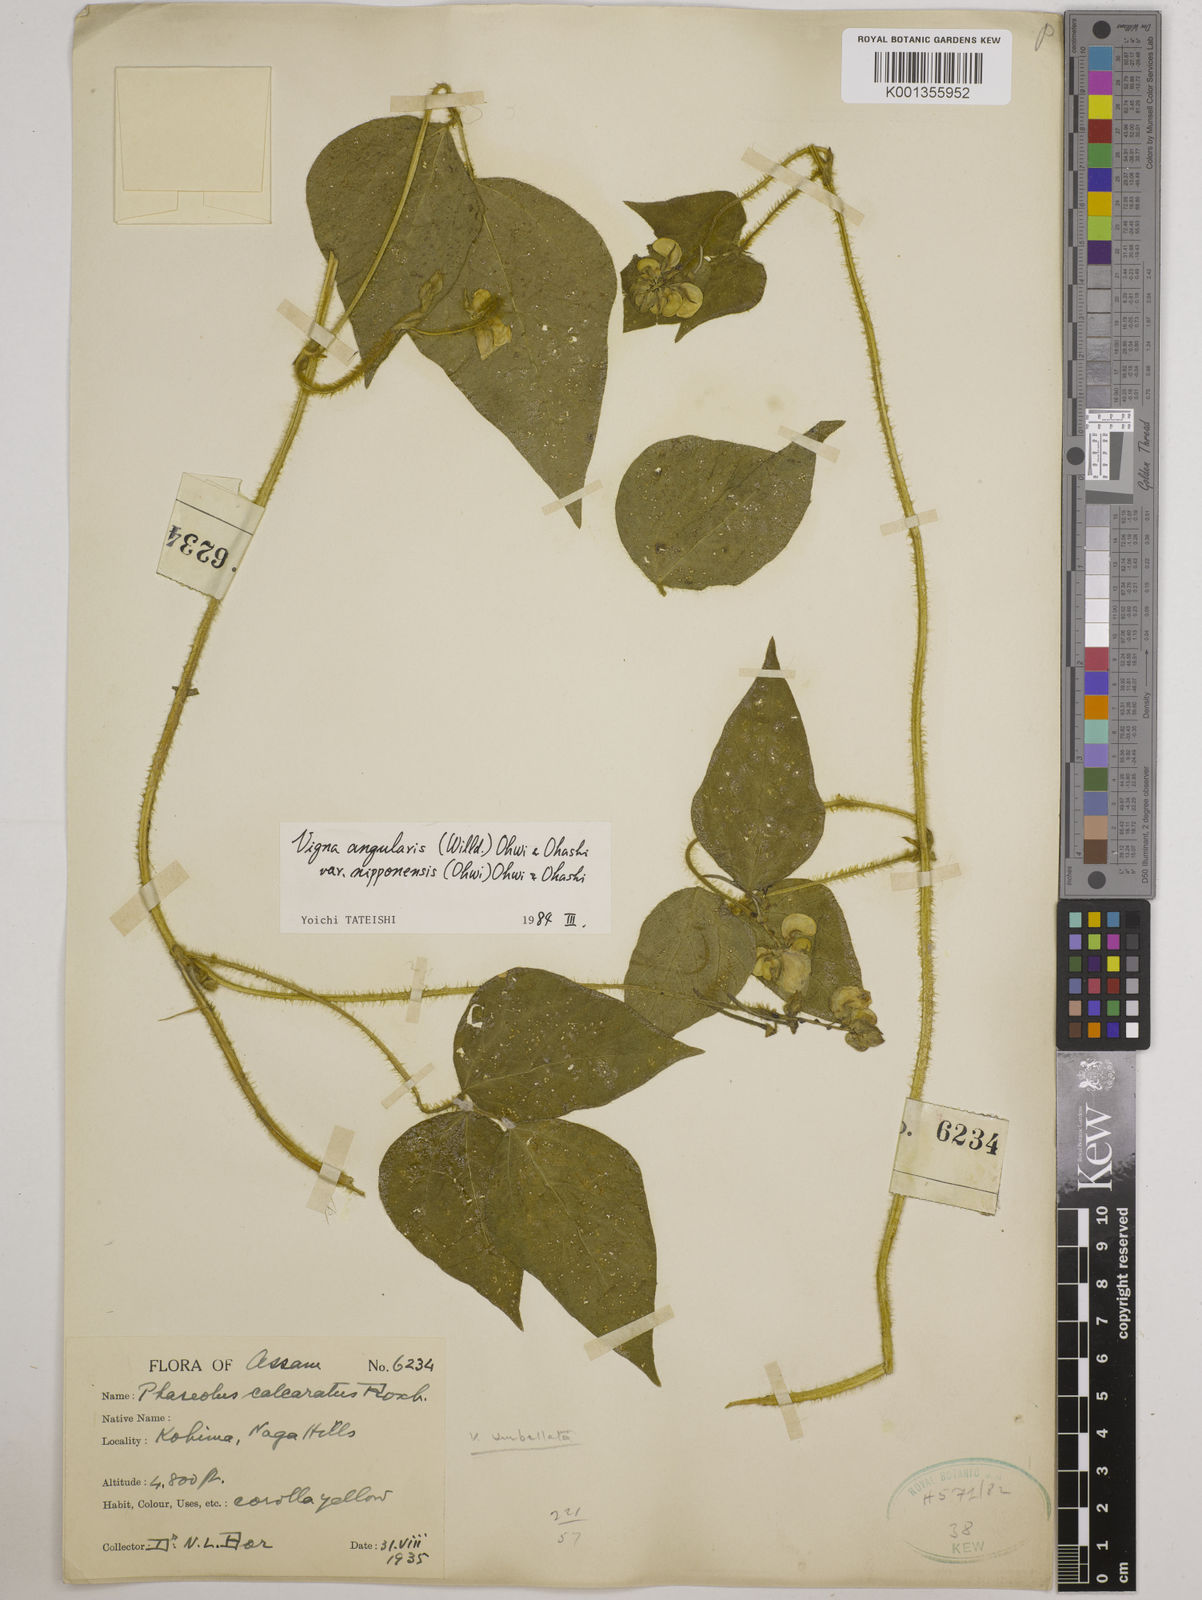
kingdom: Plantae
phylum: Tracheophyta
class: Magnoliopsida
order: Fabales
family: Fabaceae
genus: Vigna
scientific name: Vigna
